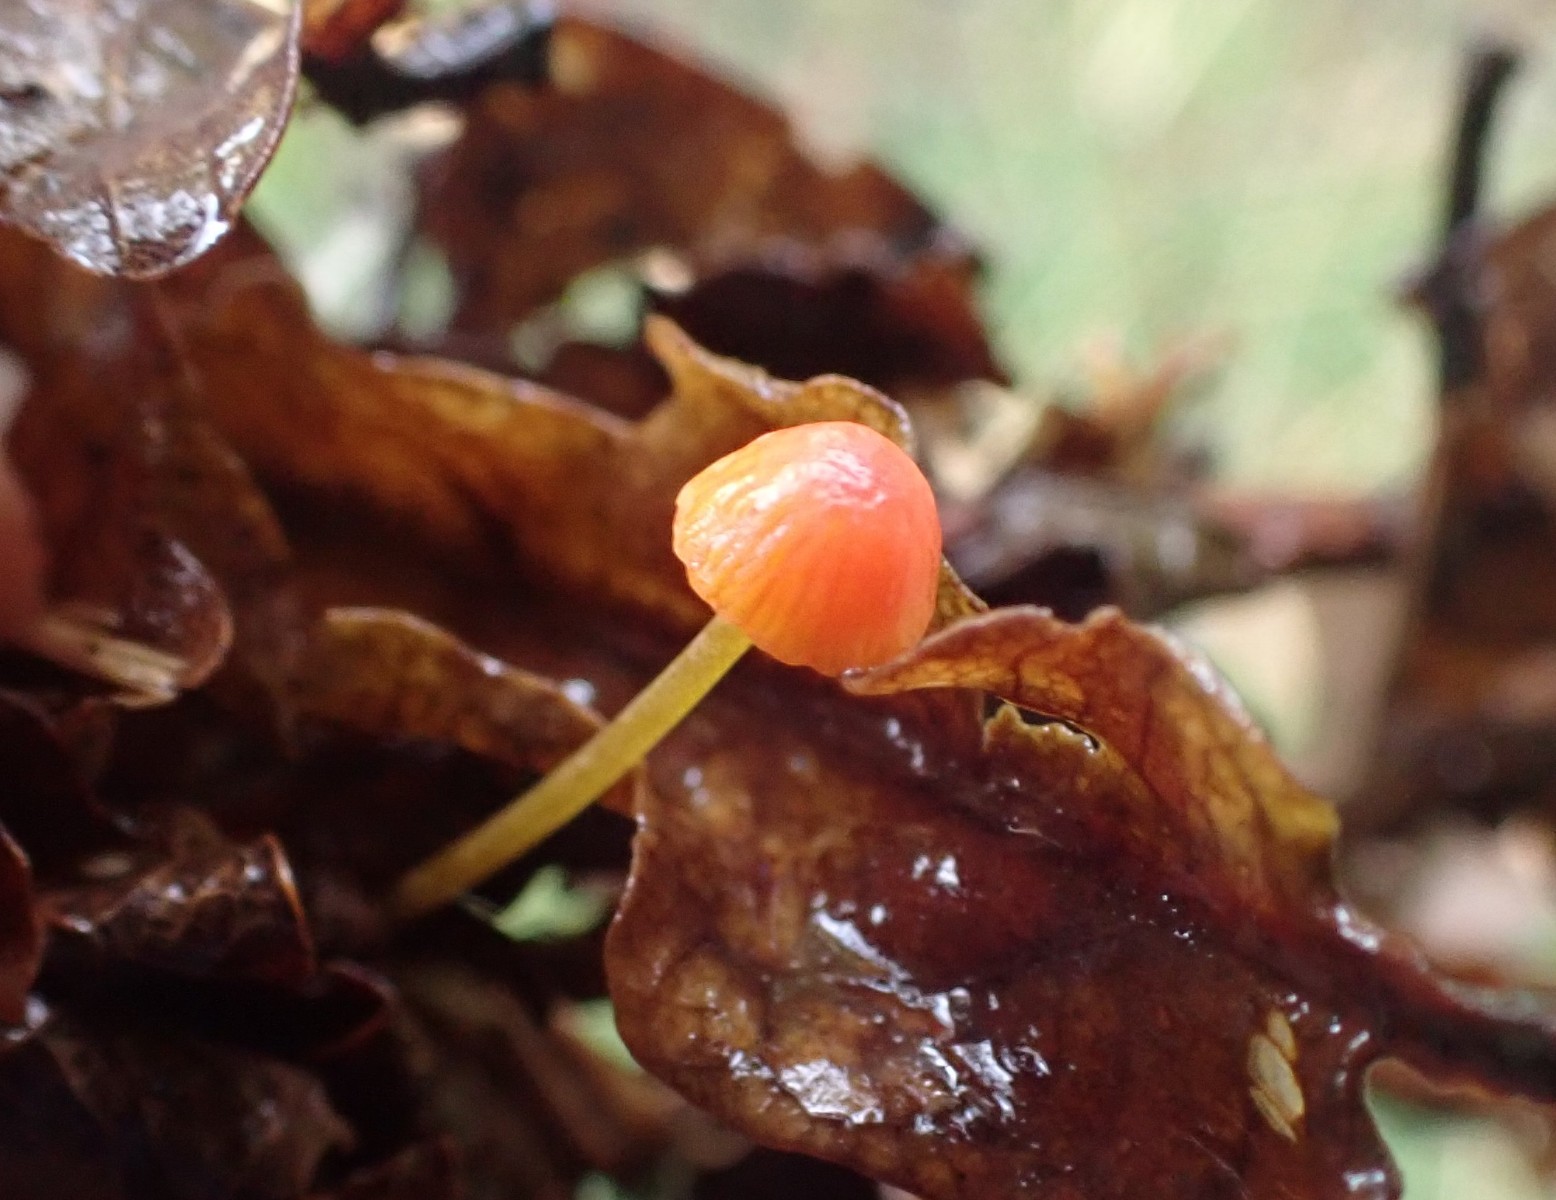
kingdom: Fungi
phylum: Basidiomycota
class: Agaricomycetes
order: Agaricales
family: Mycenaceae
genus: Mycena
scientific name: Mycena acicula
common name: orange huesvamp
